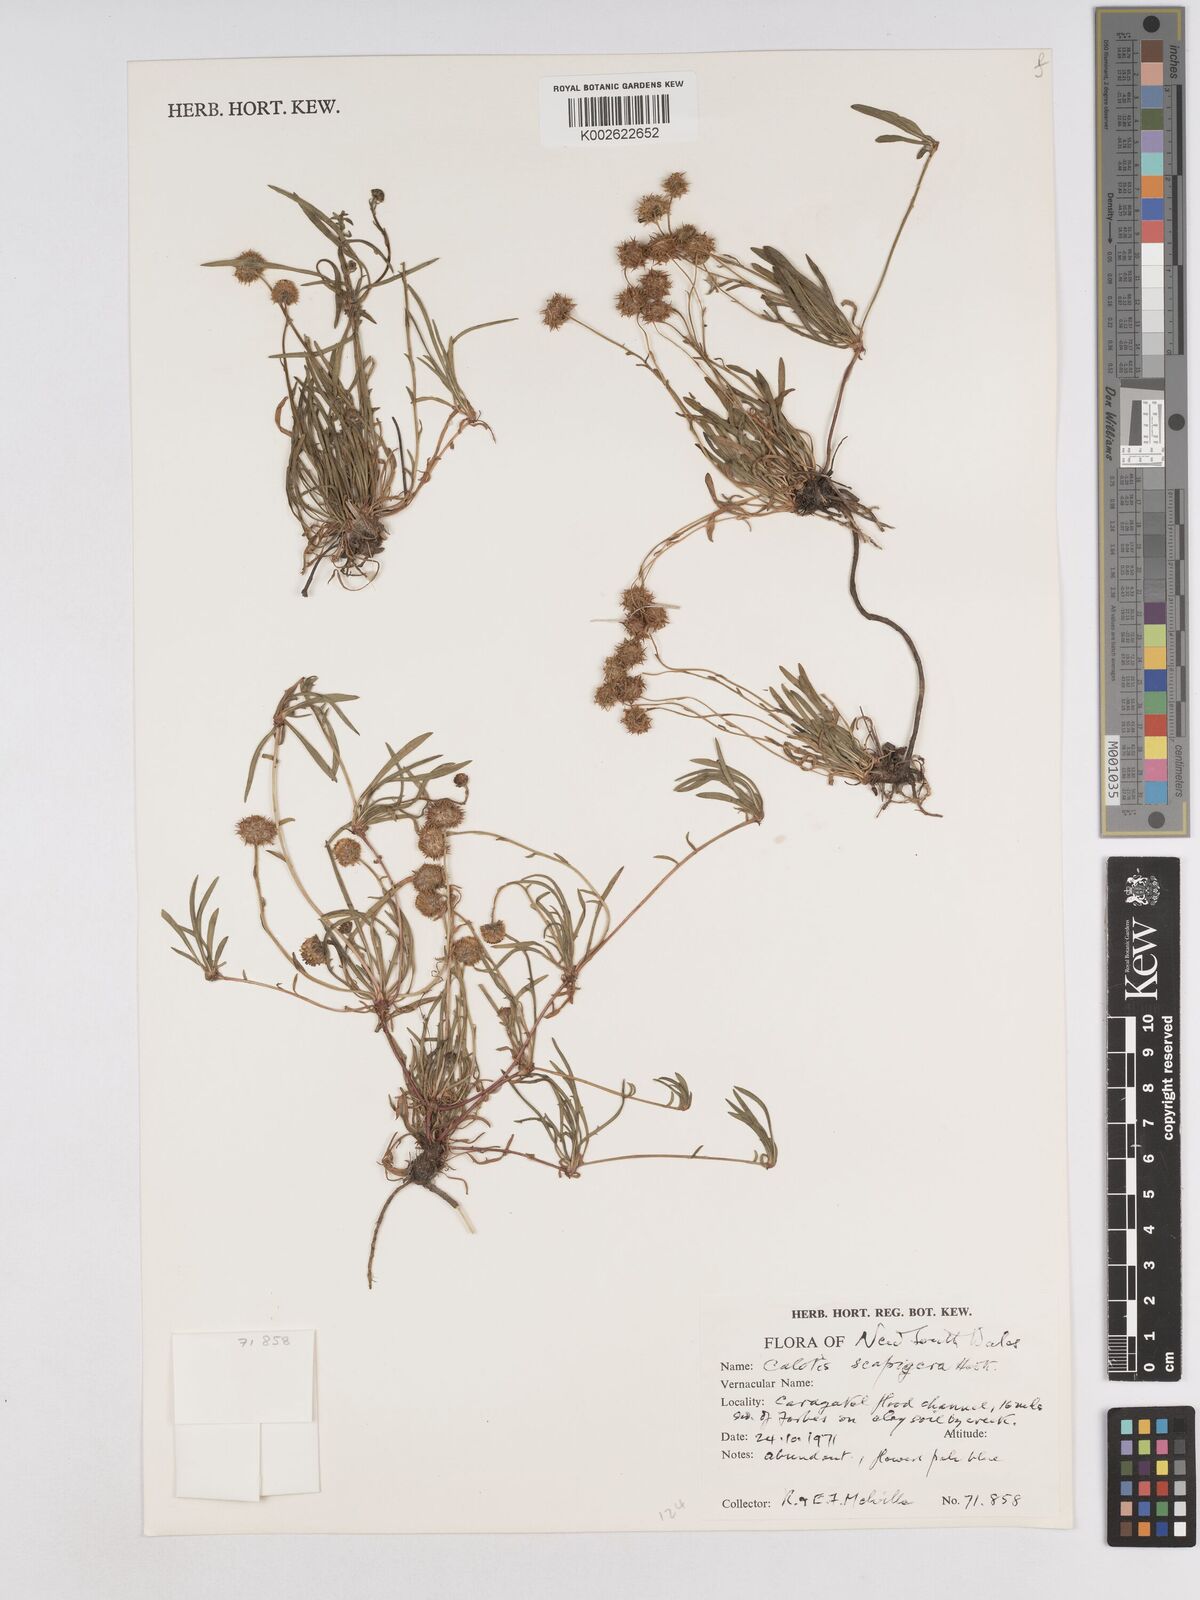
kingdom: Plantae
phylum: Tracheophyta
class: Magnoliopsida
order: Asterales
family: Asteraceae
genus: Calotis
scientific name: Calotis scapigera
